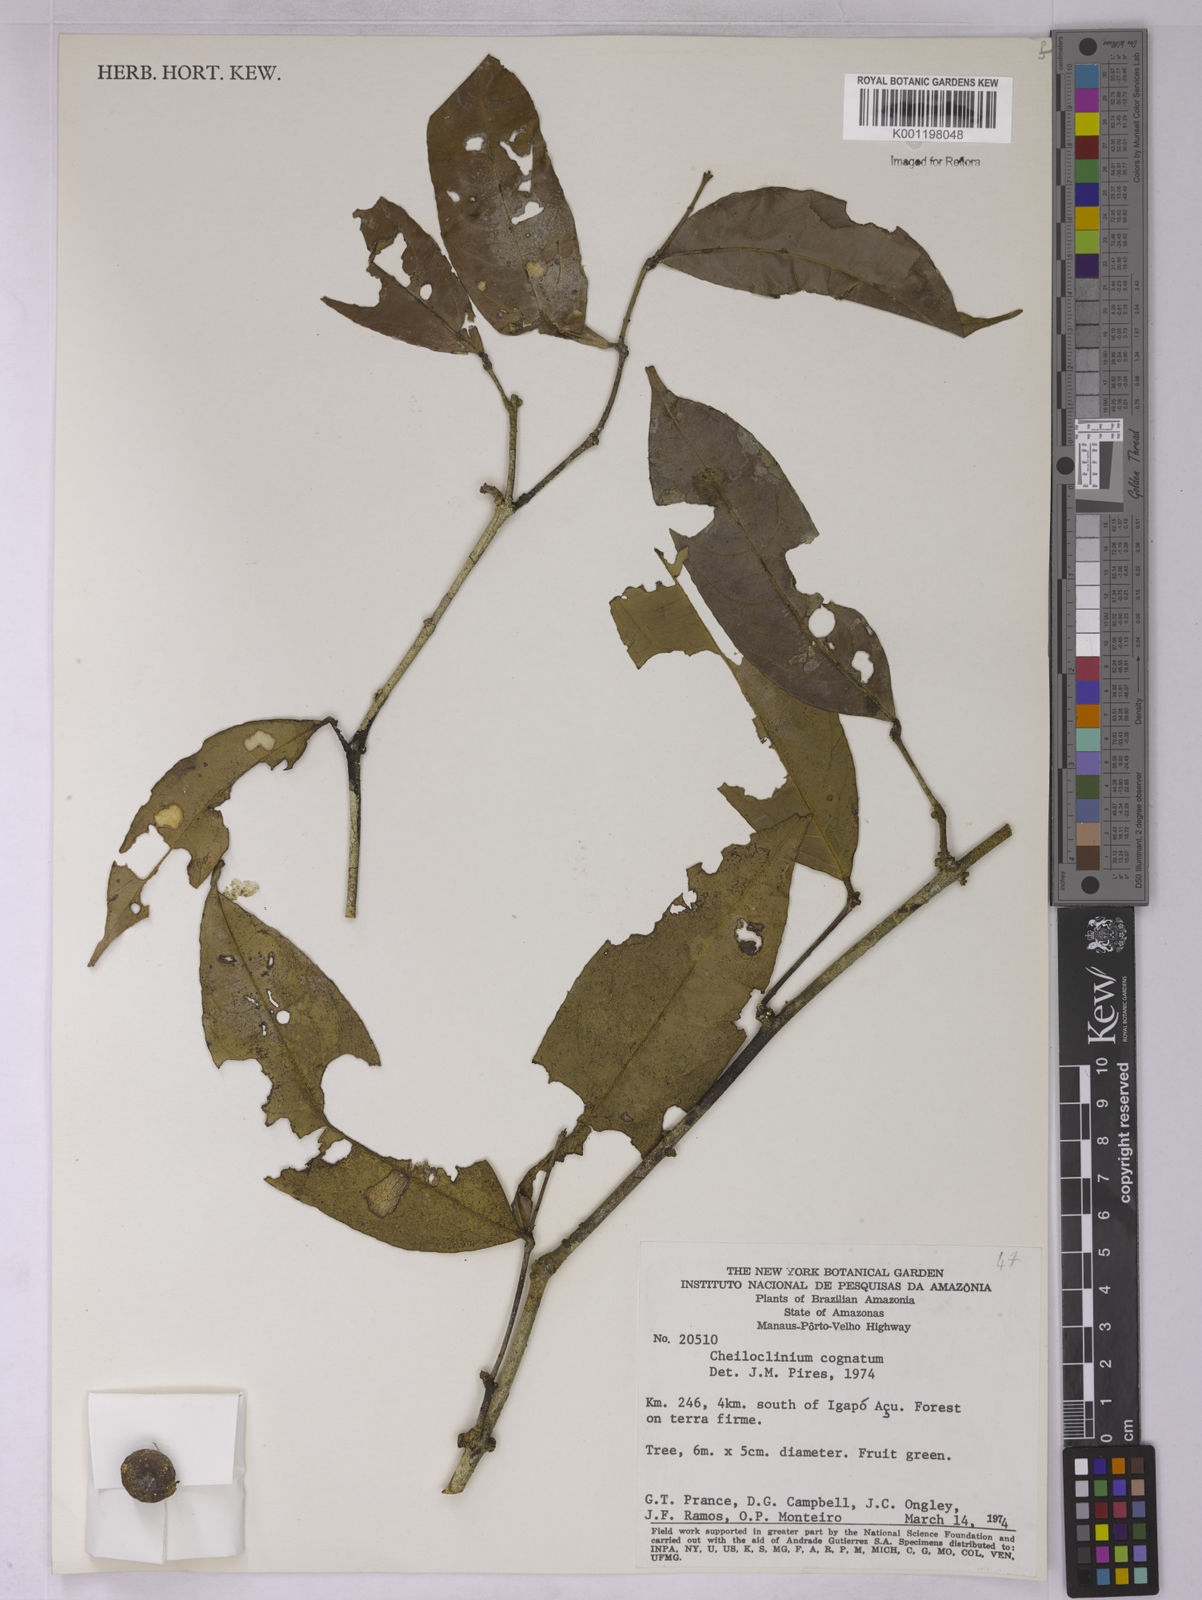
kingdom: Plantae
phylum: Tracheophyta
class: Magnoliopsida
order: Celastrales
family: Celastraceae
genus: Cheiloclinium
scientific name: Cheiloclinium cognatum
